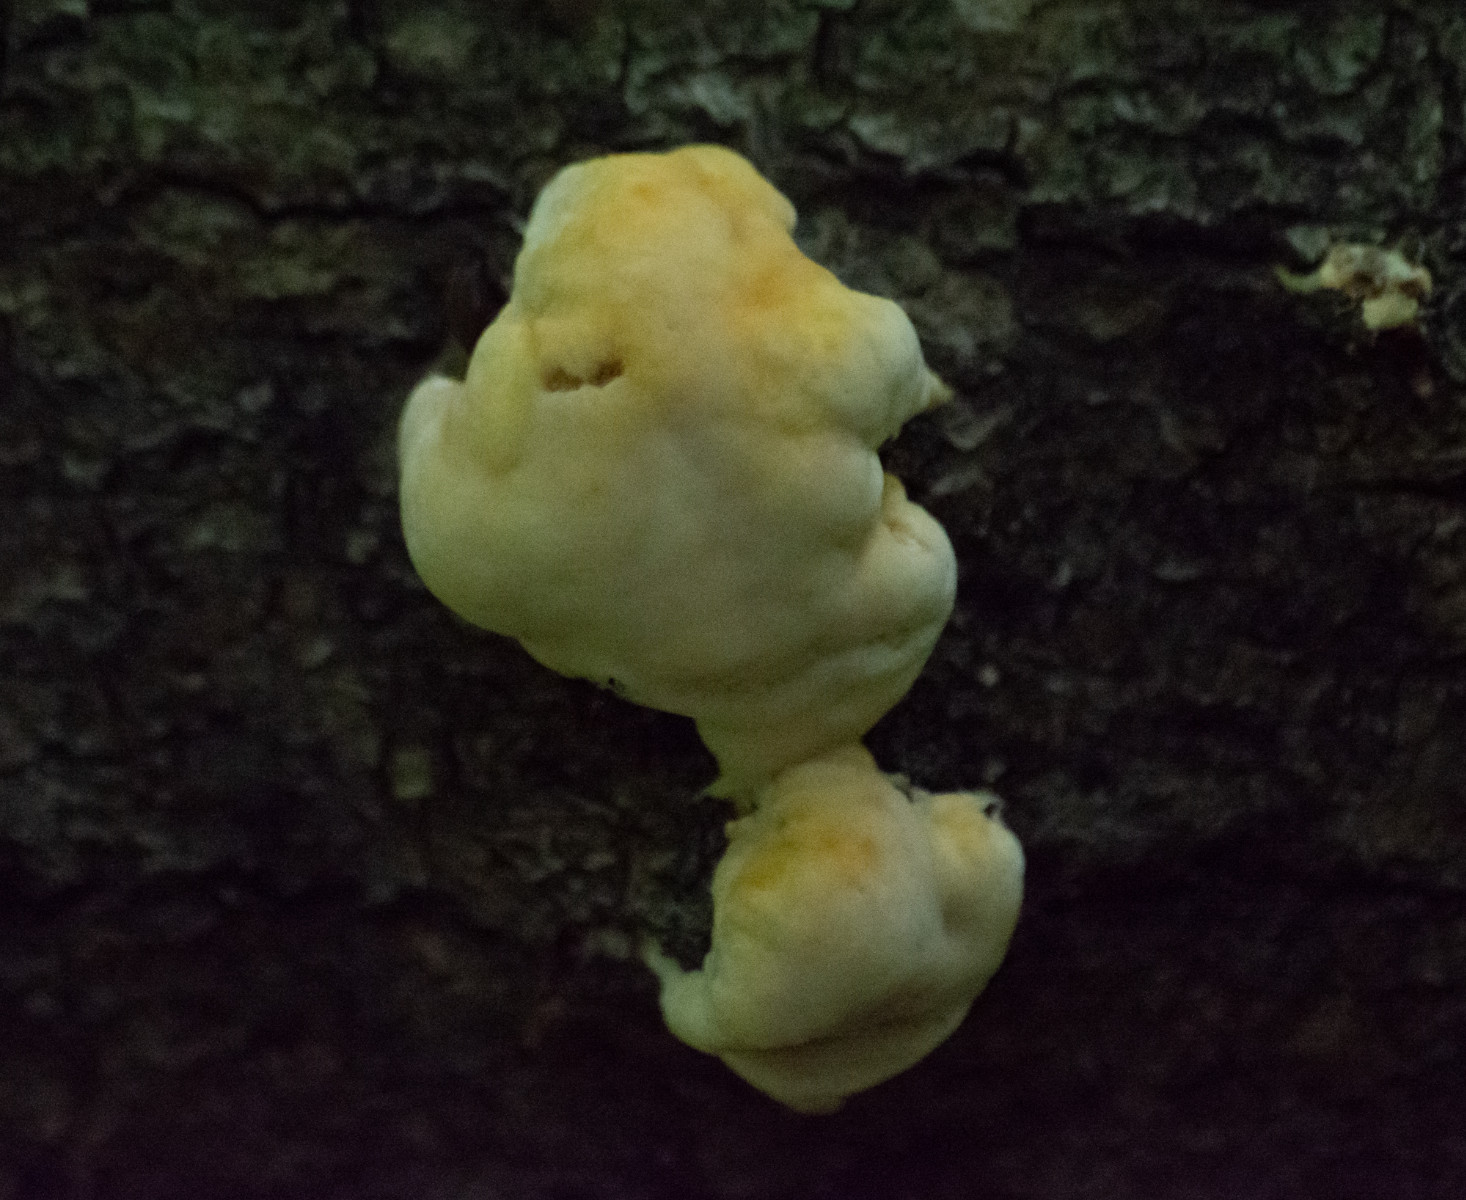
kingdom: Fungi
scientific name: Fungi
